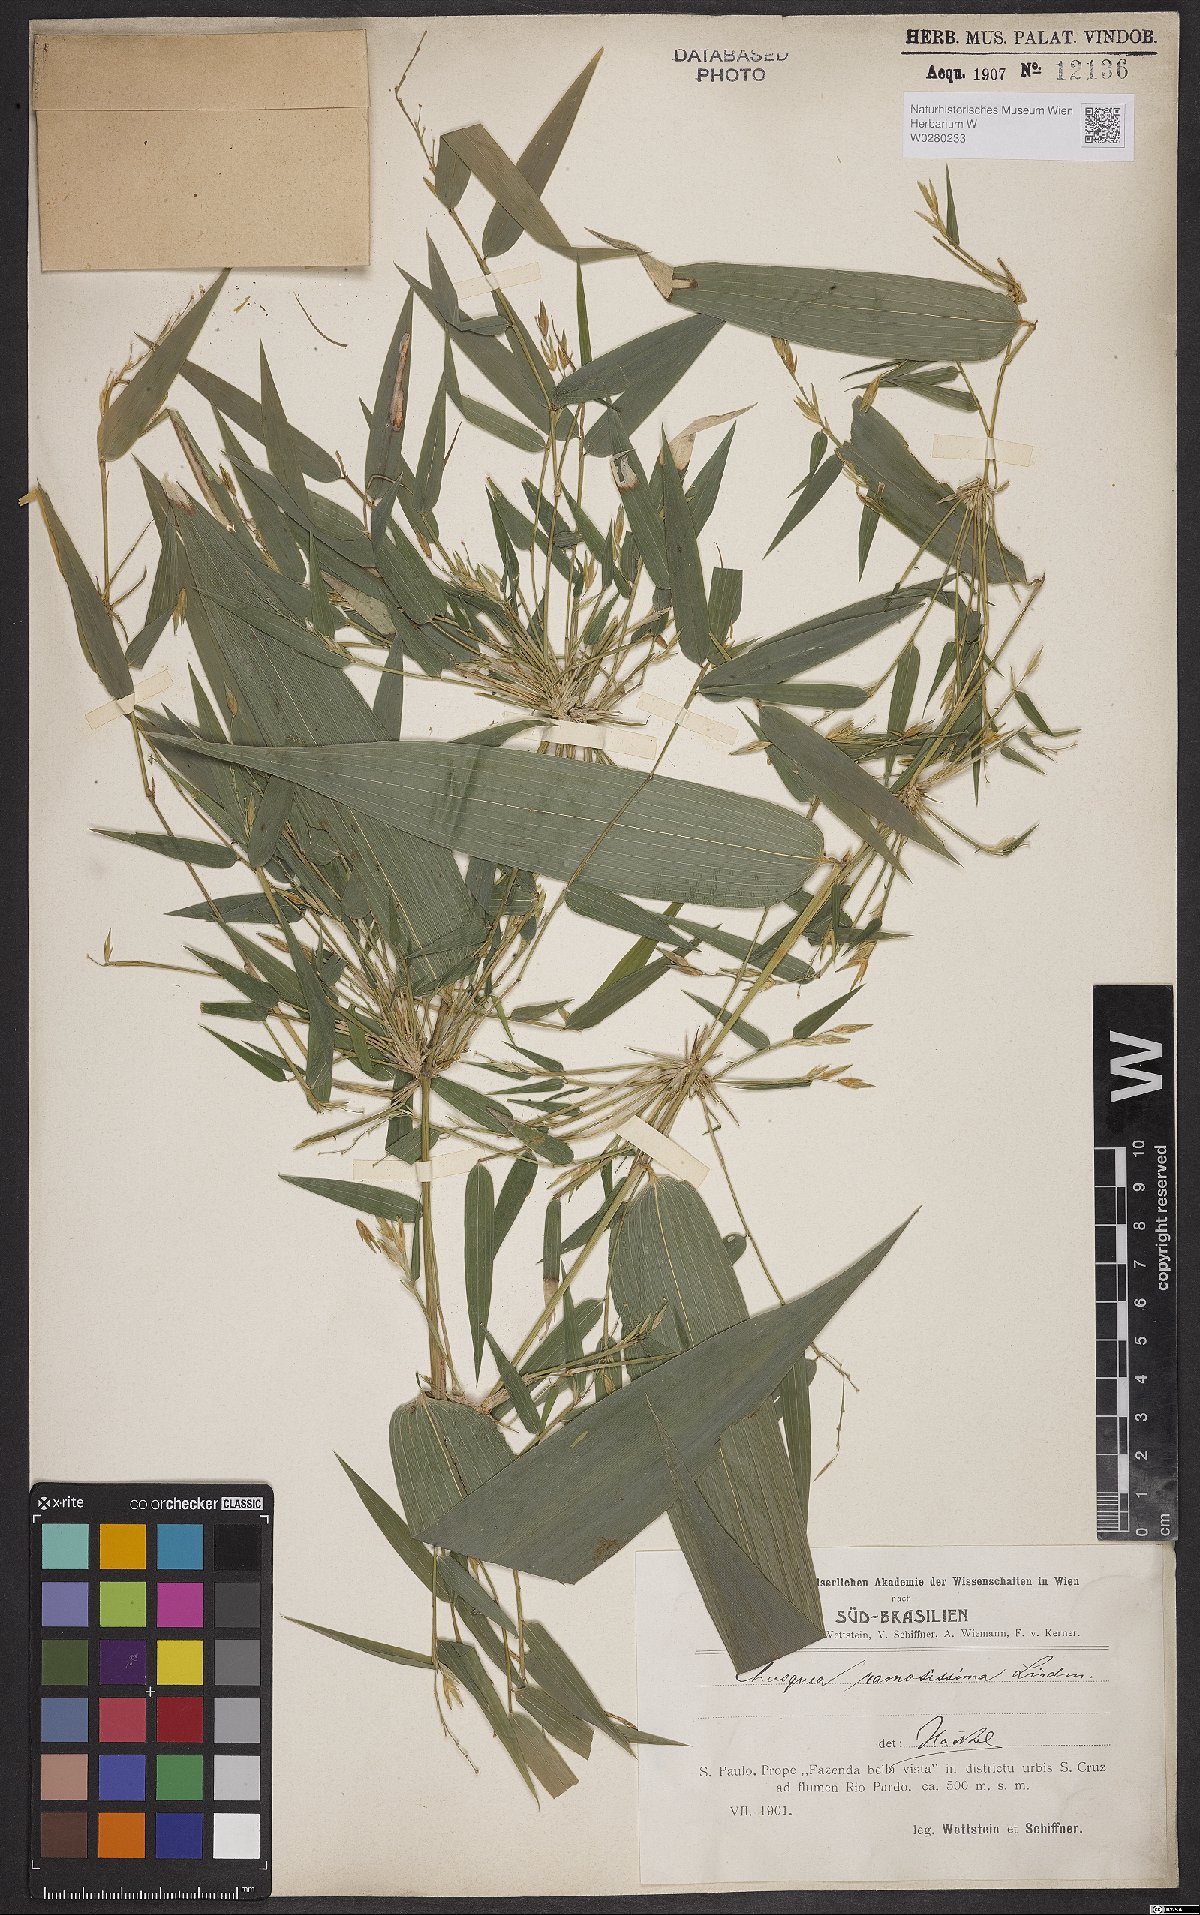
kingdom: Plantae
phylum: Tracheophyta
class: Liliopsida
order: Poales
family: Poaceae
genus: Chusquea
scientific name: Chusquea ramosissima
